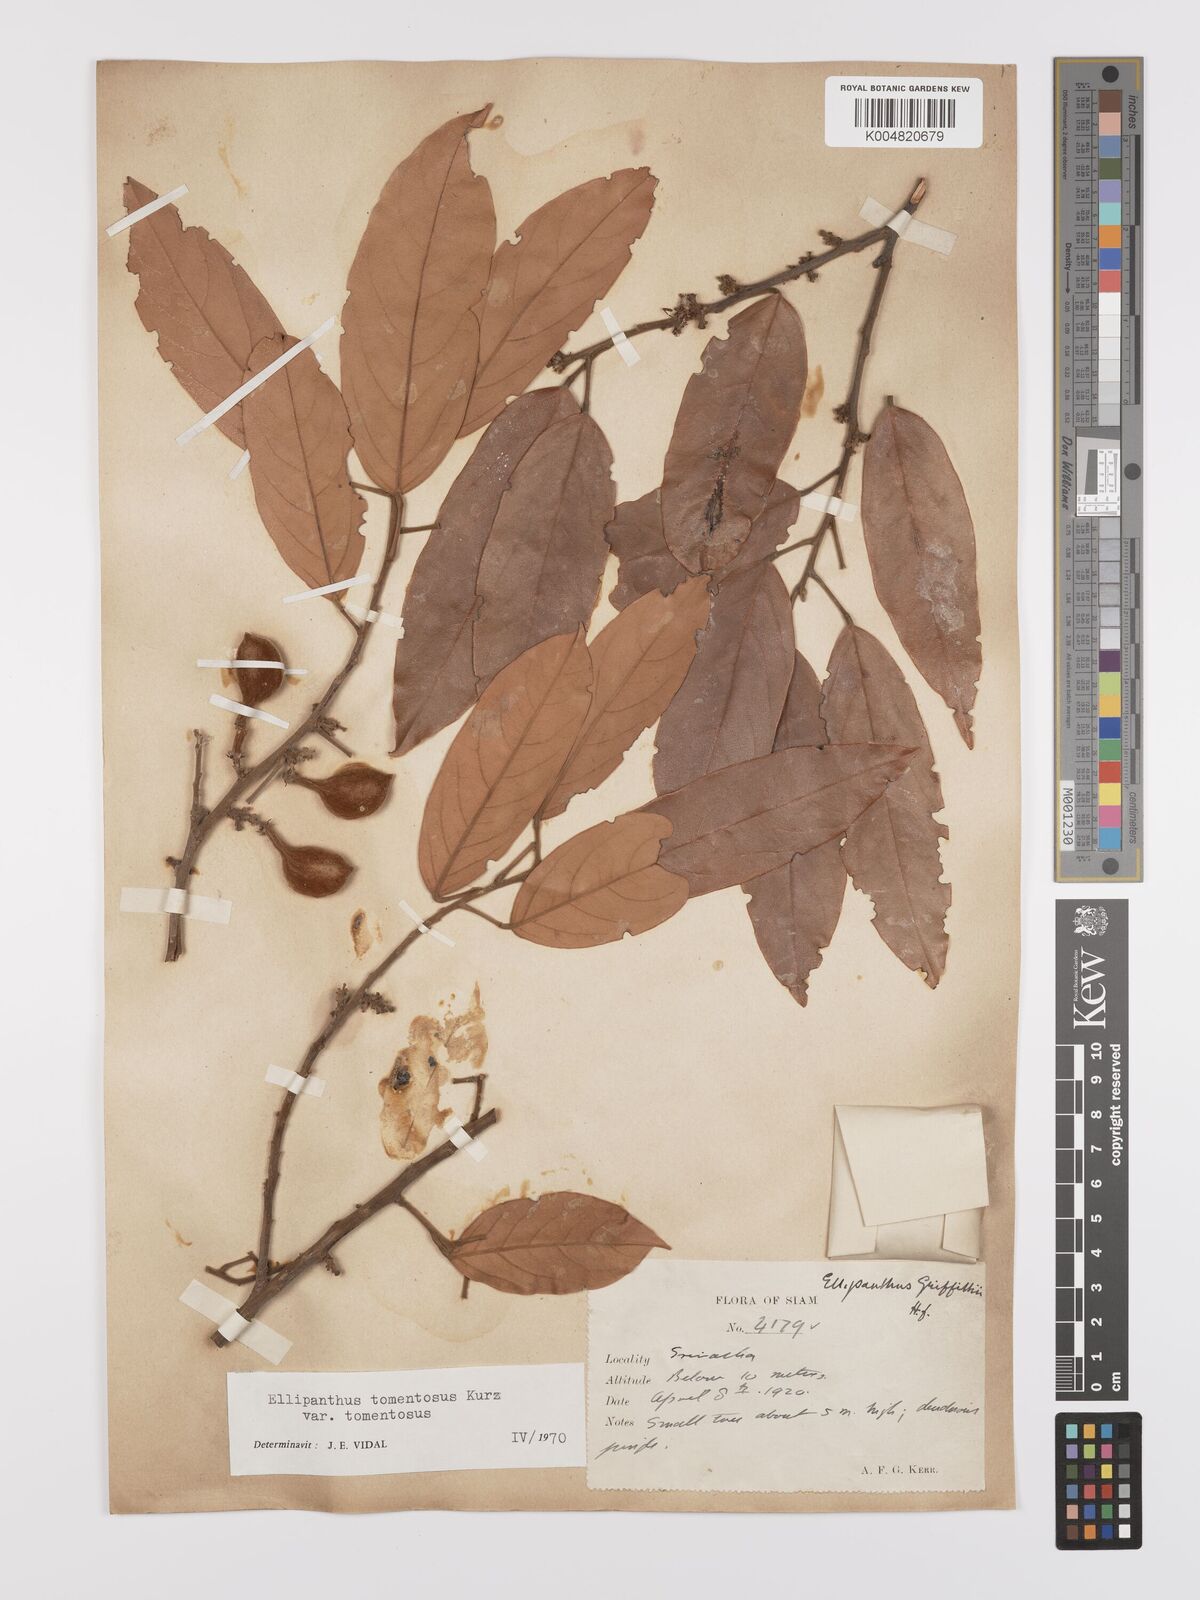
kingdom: Plantae
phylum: Tracheophyta
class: Magnoliopsida
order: Oxalidales
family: Connaraceae
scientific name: Connaraceae
